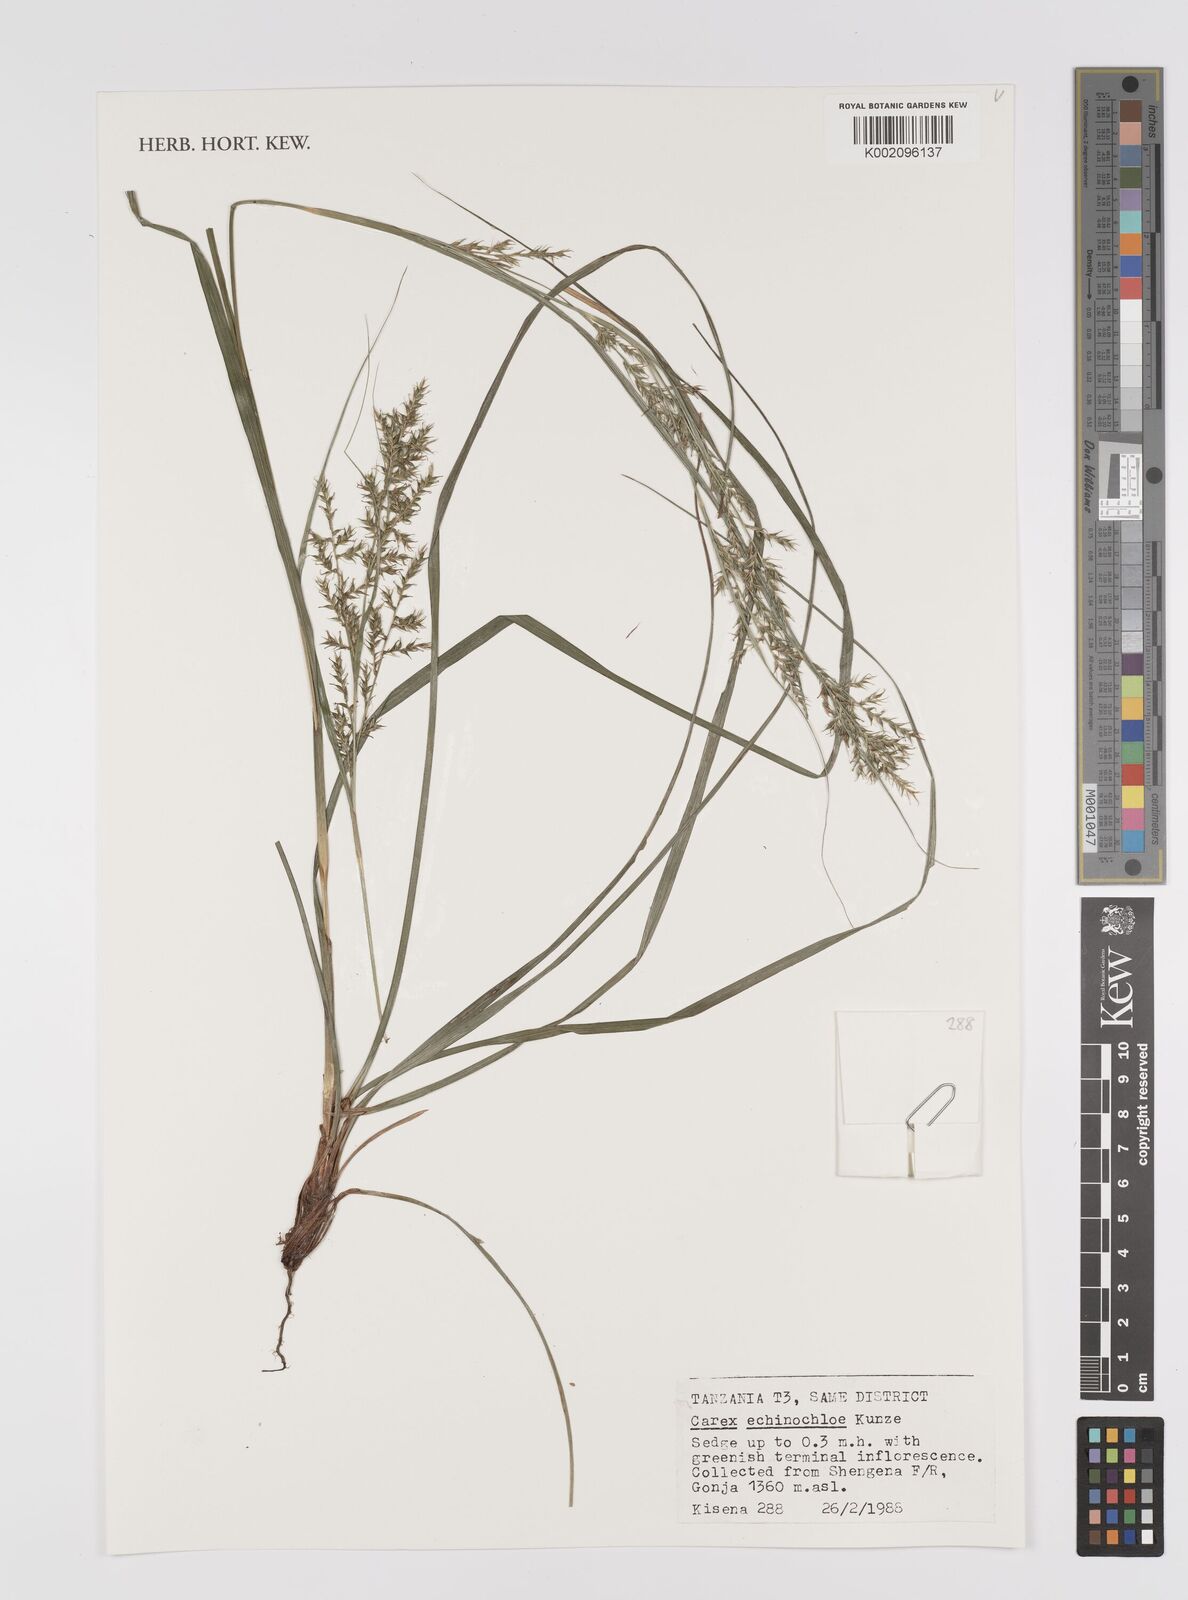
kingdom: Plantae
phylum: Tracheophyta
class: Liliopsida
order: Poales
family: Cyperaceae
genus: Carex
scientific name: Carex echinochloe
